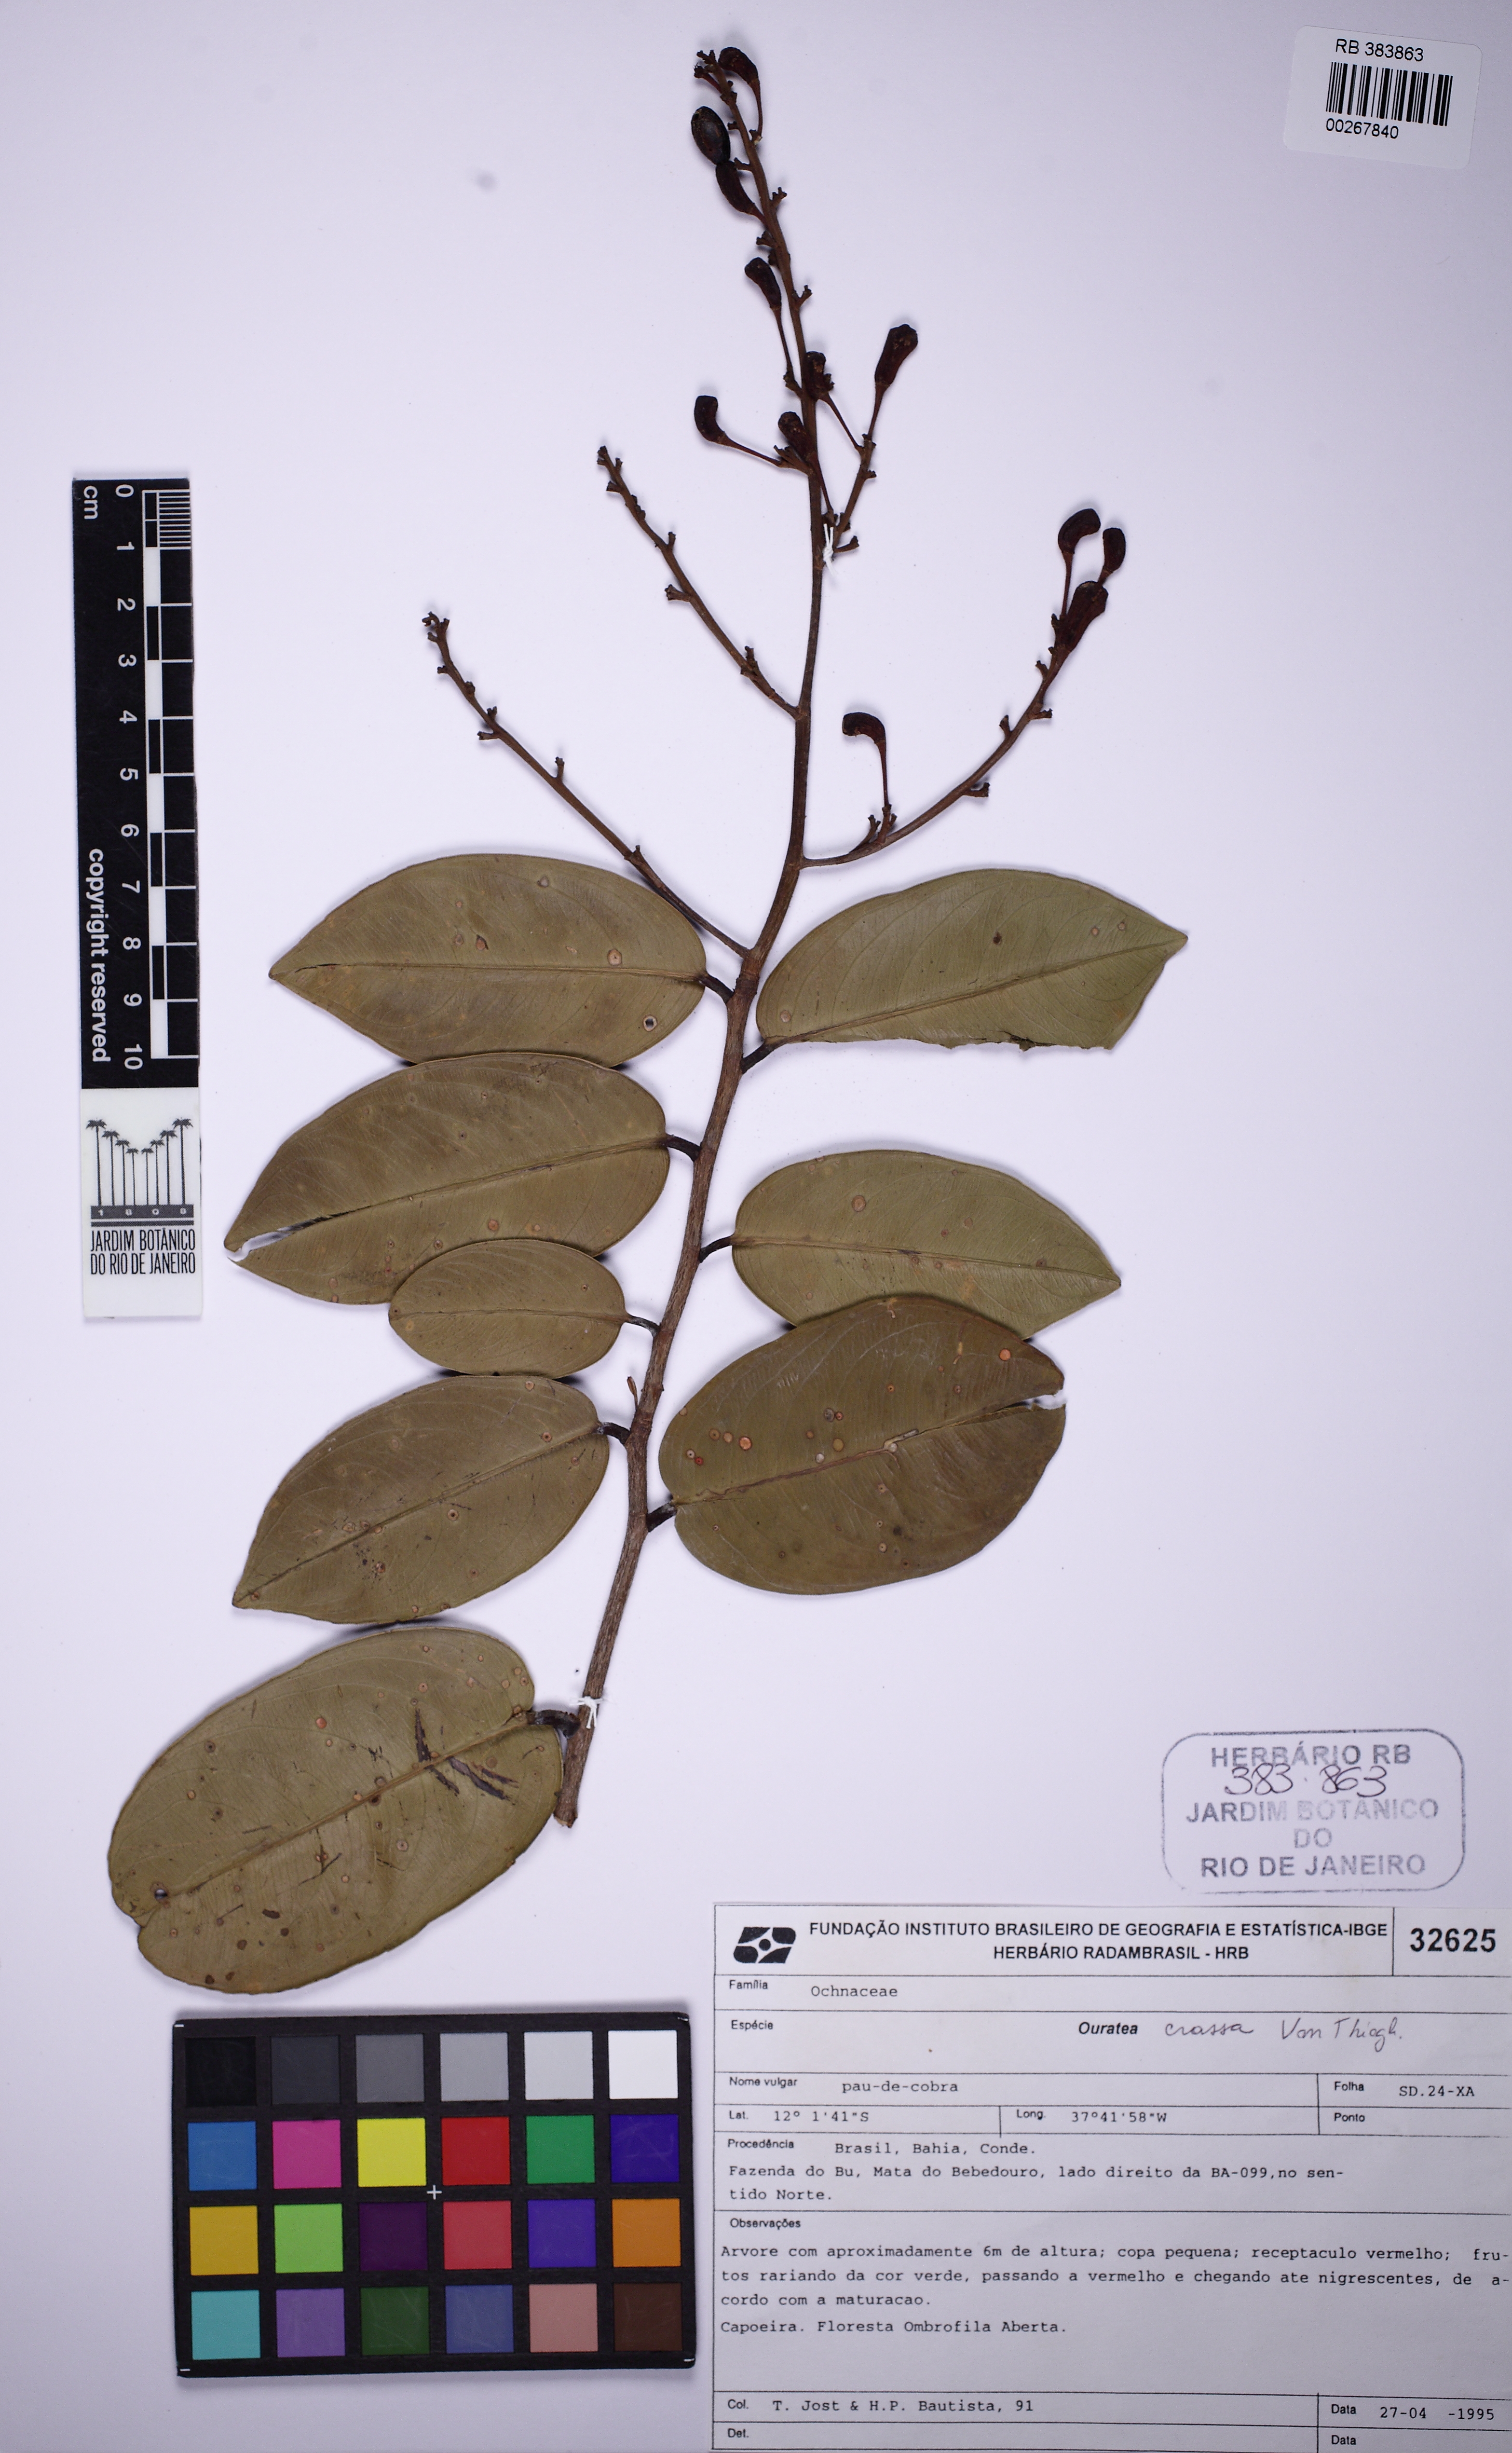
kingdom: Plantae
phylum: Tracheophyta
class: Magnoliopsida
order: Malpighiales
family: Ochnaceae
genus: Ouratea
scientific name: Ouratea crassa
